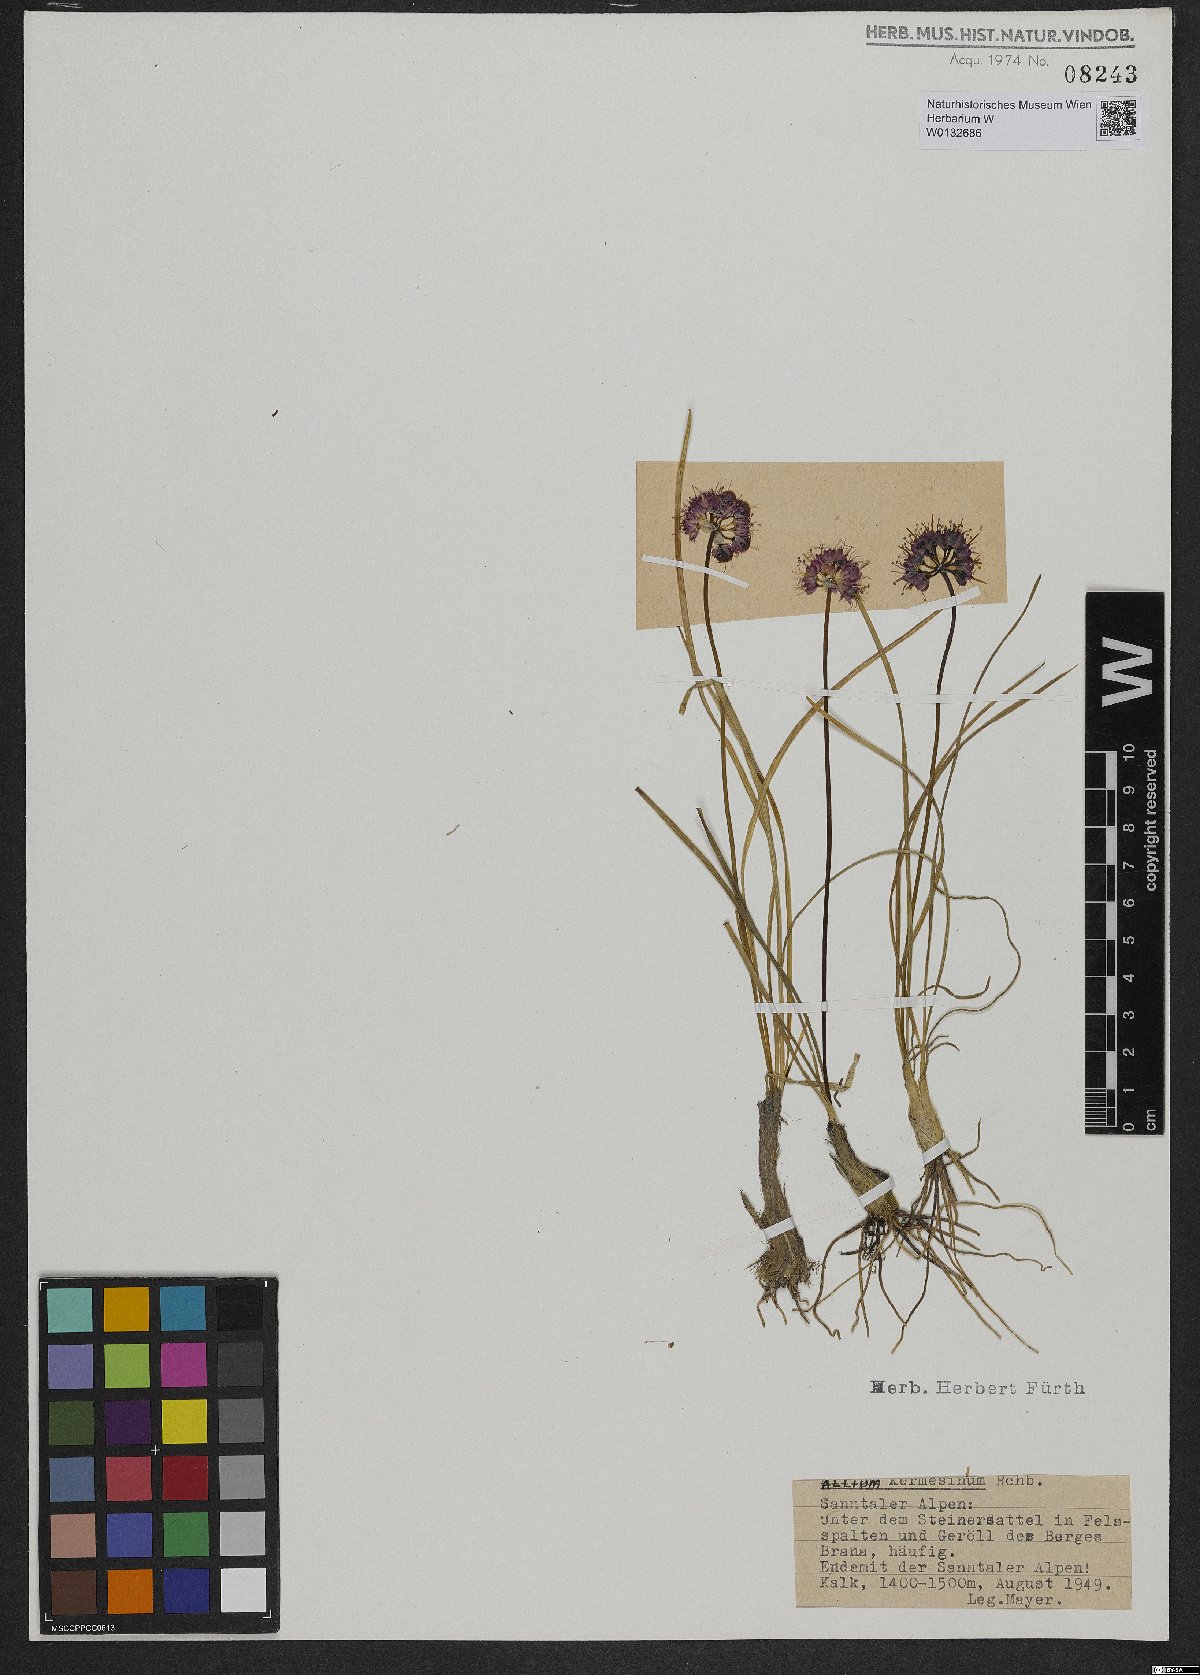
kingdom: Plantae
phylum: Tracheophyta
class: Liliopsida
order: Asparagales
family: Amaryllidaceae
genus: Allium
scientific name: Allium kermesinum
